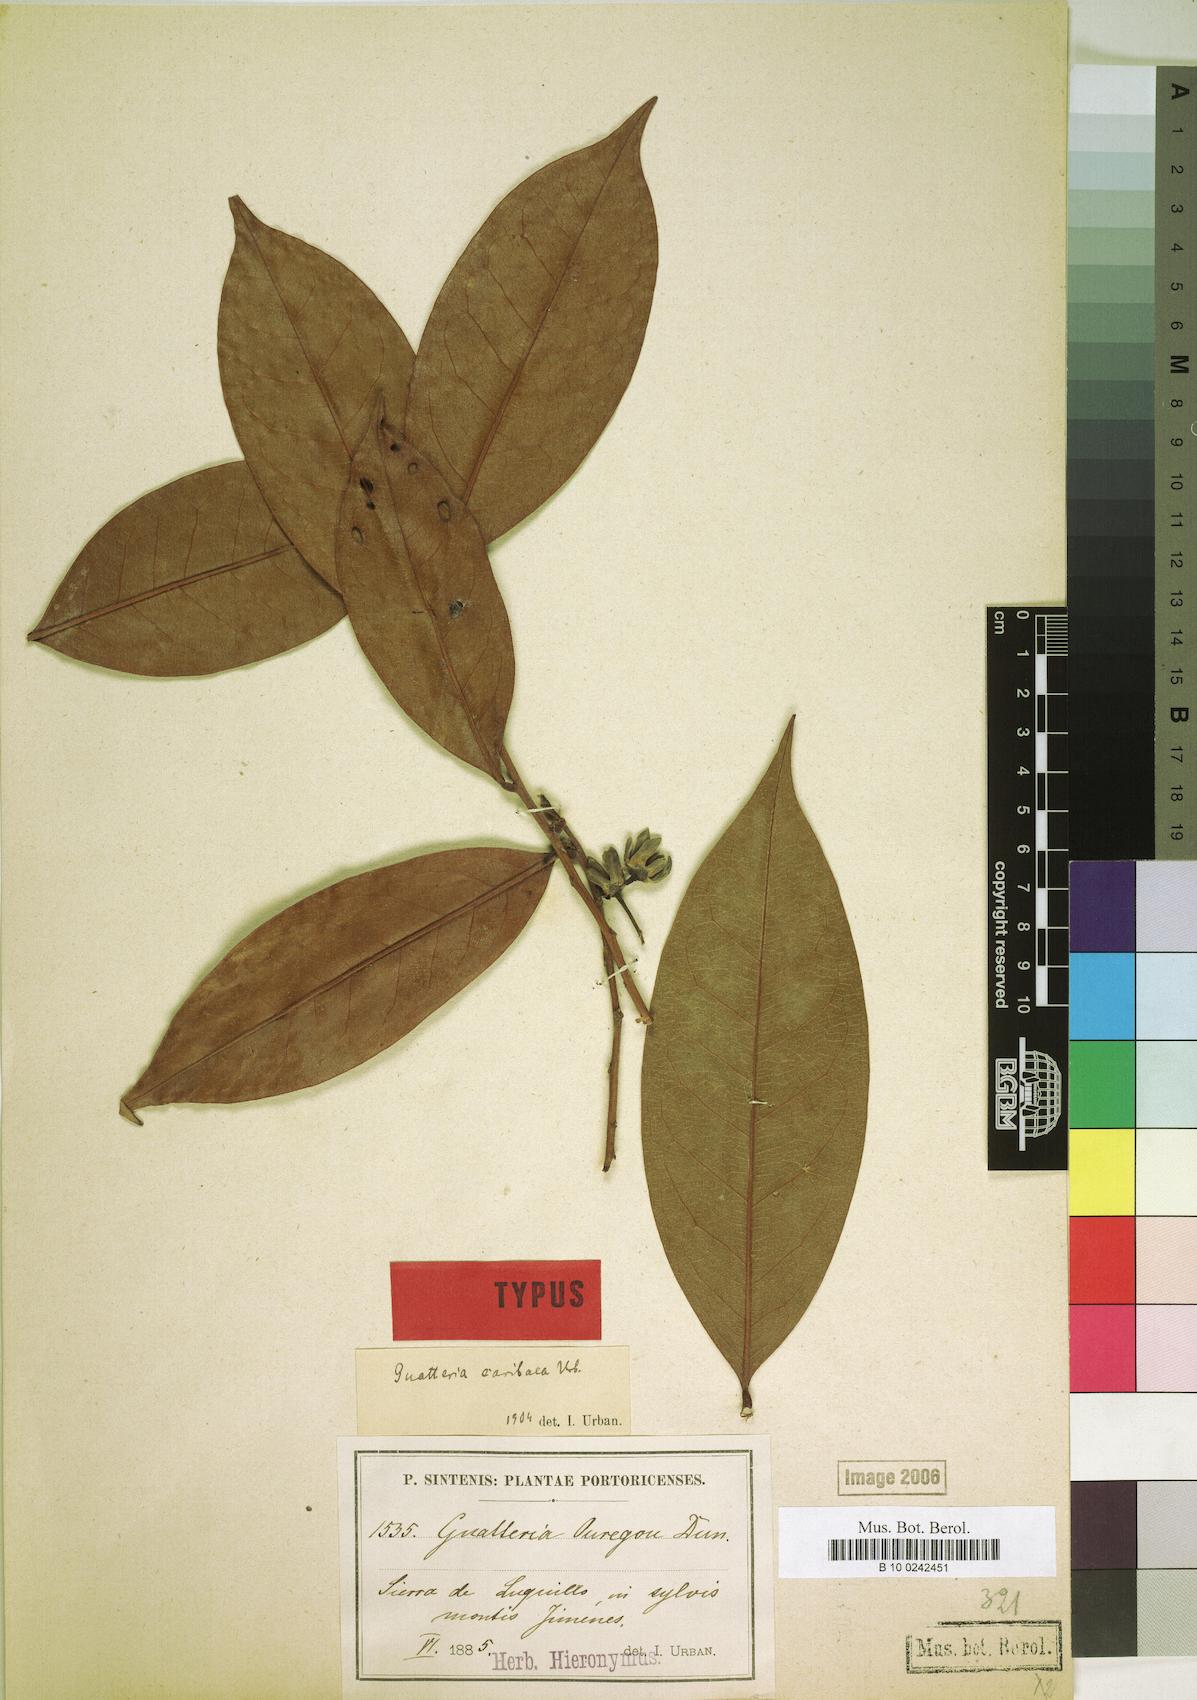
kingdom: Plantae
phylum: Tracheophyta
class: Magnoliopsida
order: Magnoliales
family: Annonaceae
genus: Guatteria
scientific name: Guatteria caribaea
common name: Wild soursop
